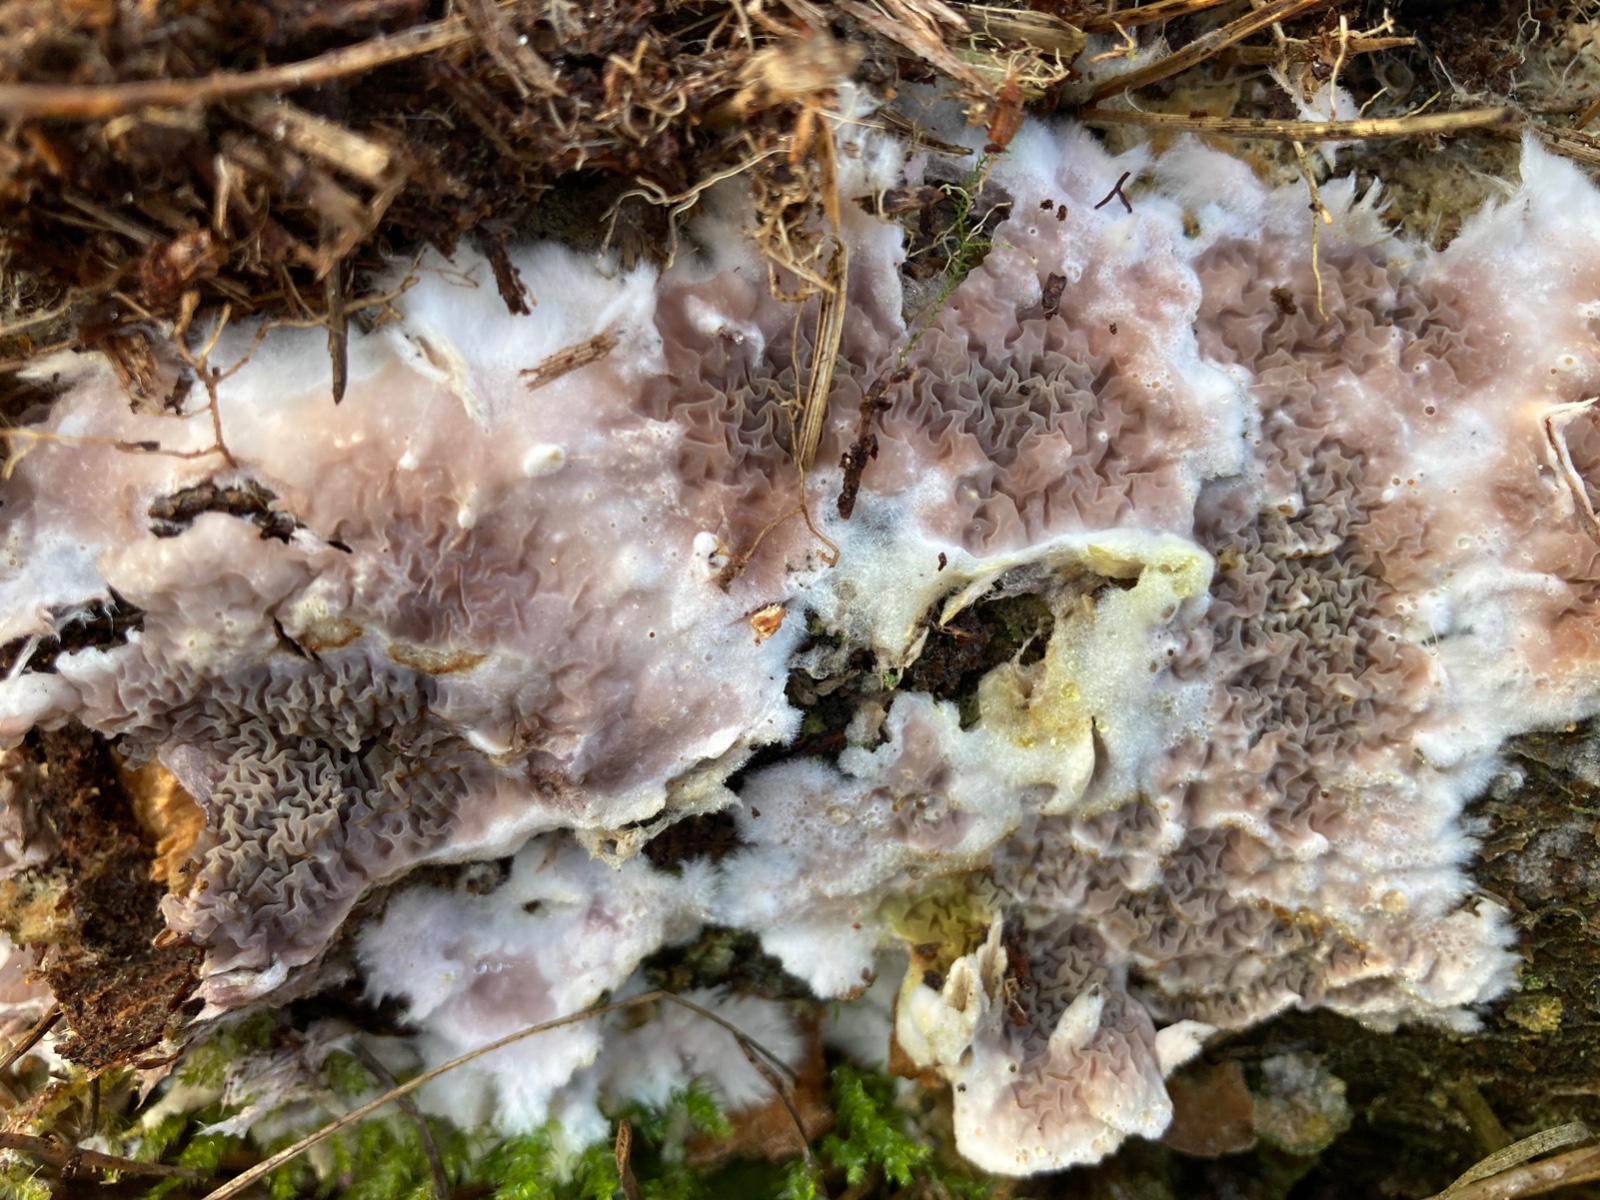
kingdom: Fungi
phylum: Basidiomycota
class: Agaricomycetes
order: Boletales
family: Serpulaceae
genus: Serpula
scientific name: Serpula himantioides
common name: tyndkødet hussvamp
